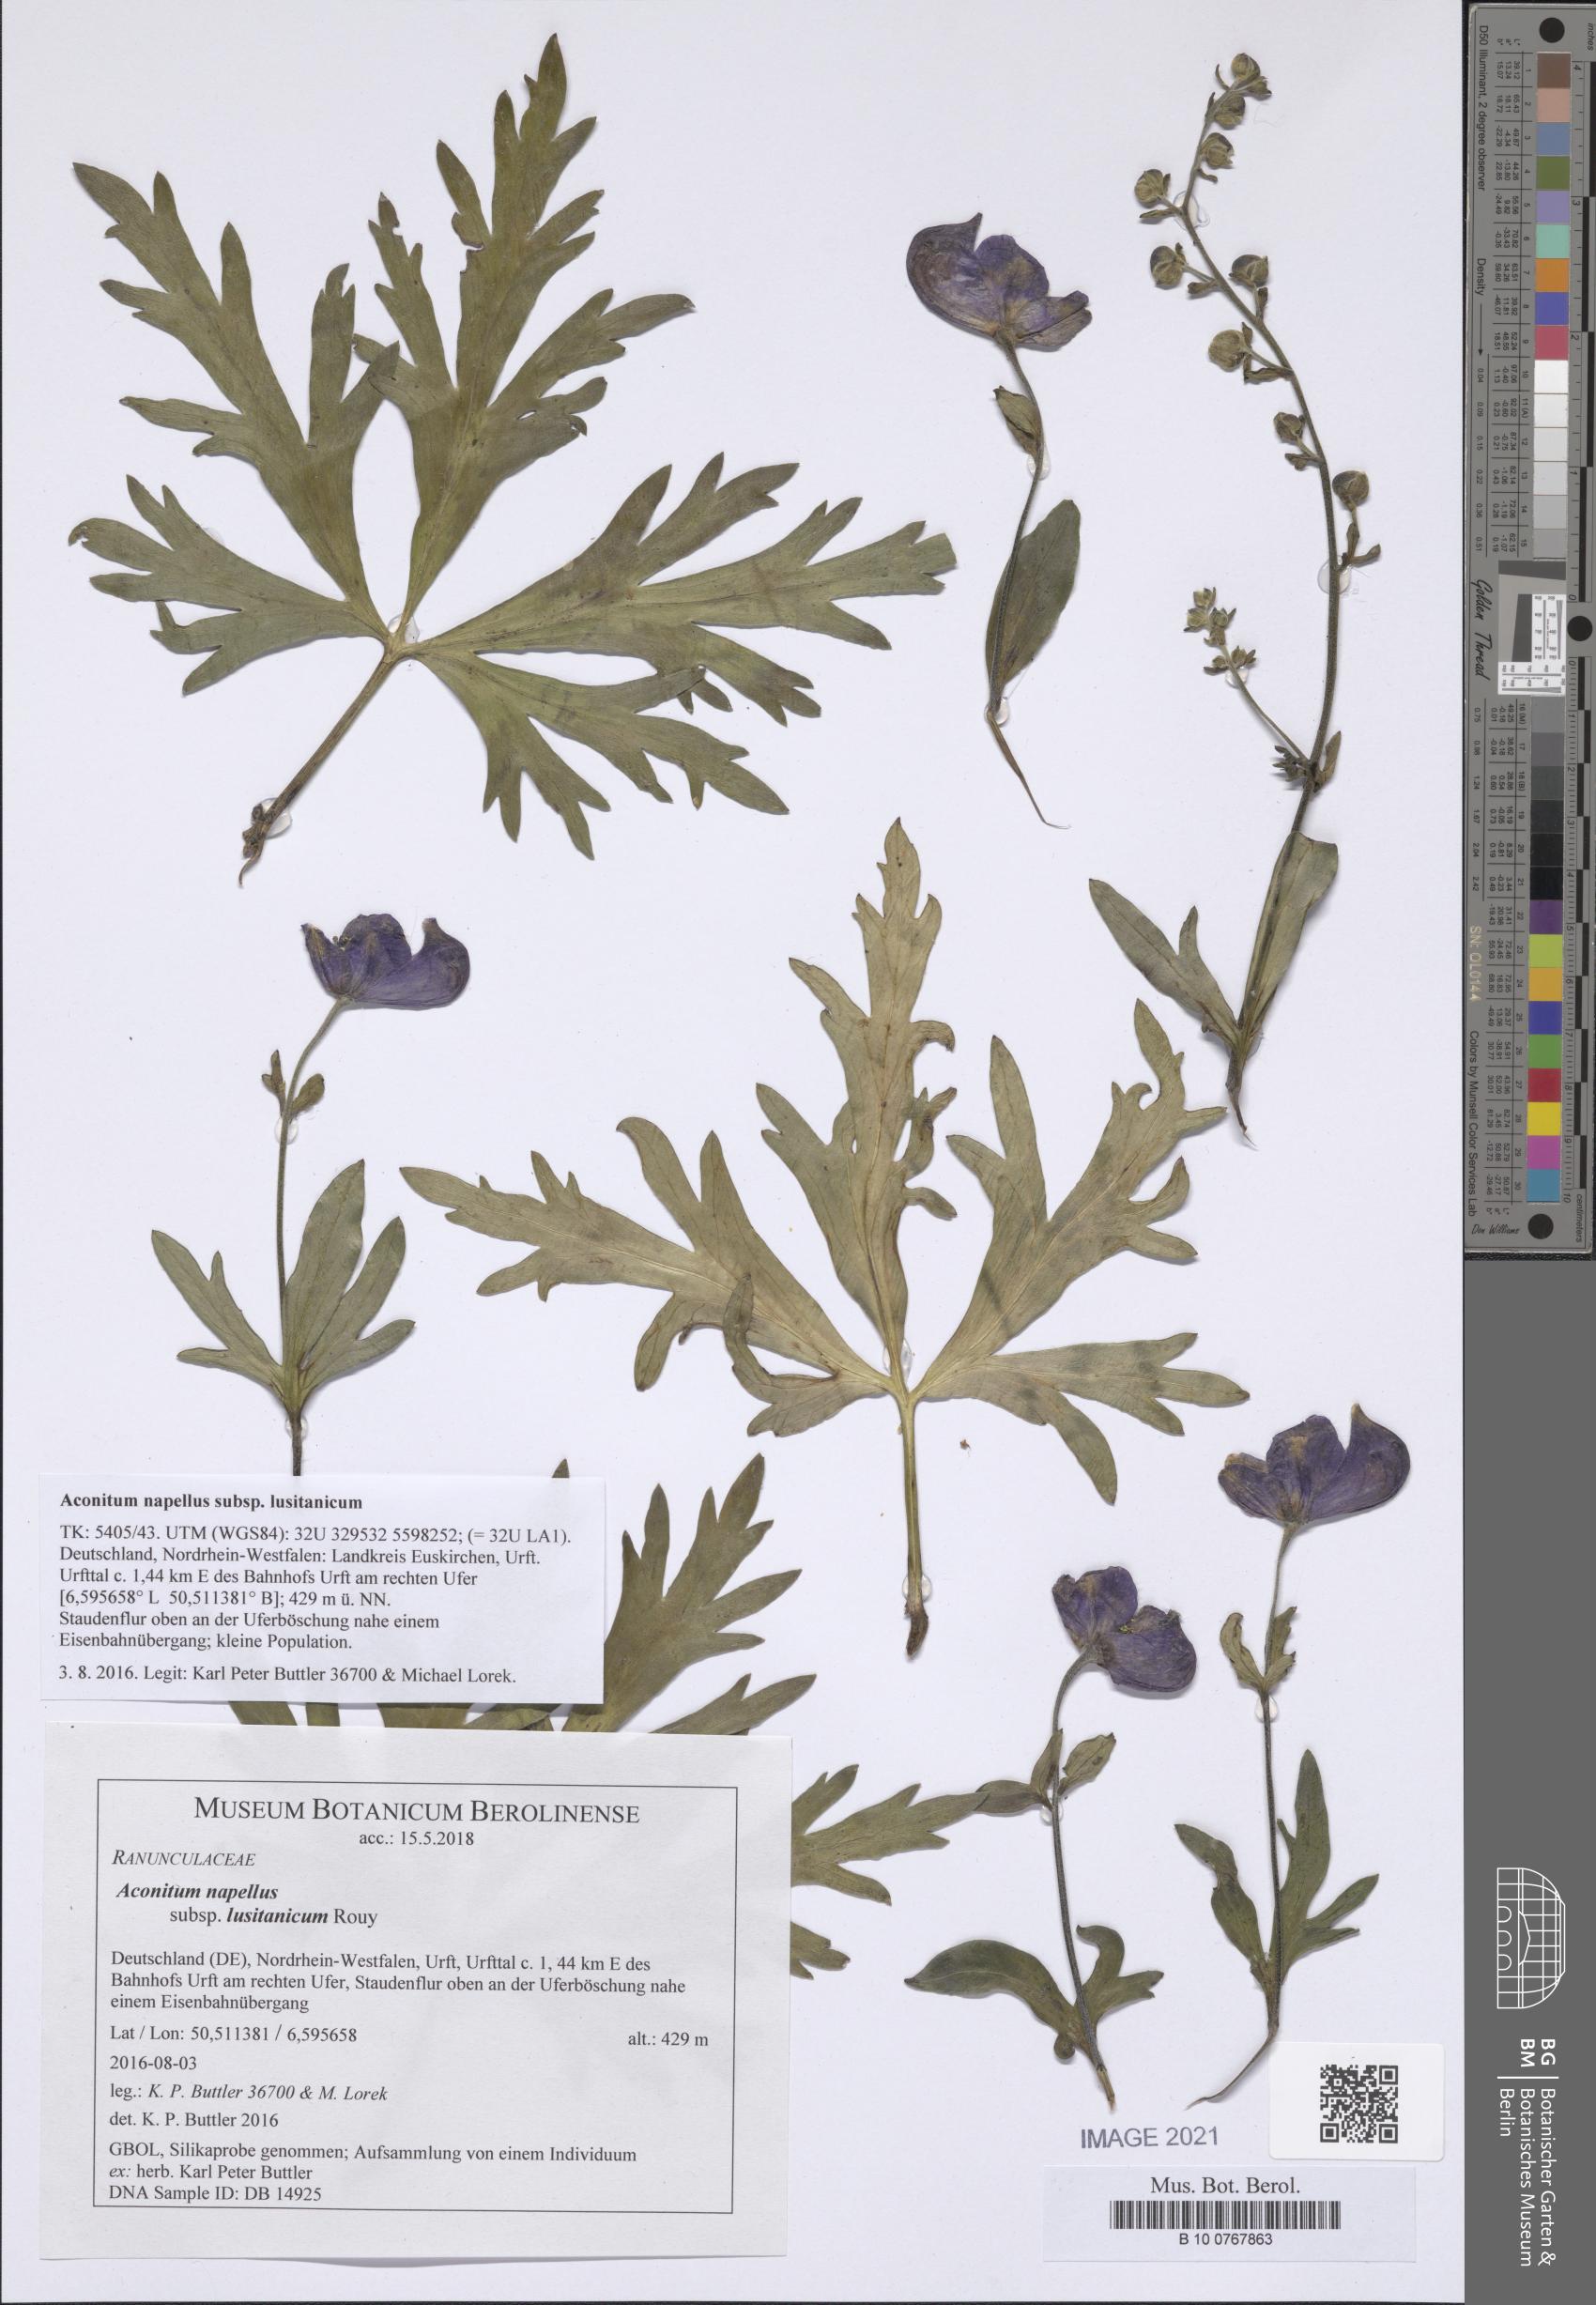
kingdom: Plantae
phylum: Tracheophyta
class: Magnoliopsida
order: Ranunculales
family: Ranunculaceae
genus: Aconitum
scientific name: Aconitum napellus
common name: Garden monkshood
